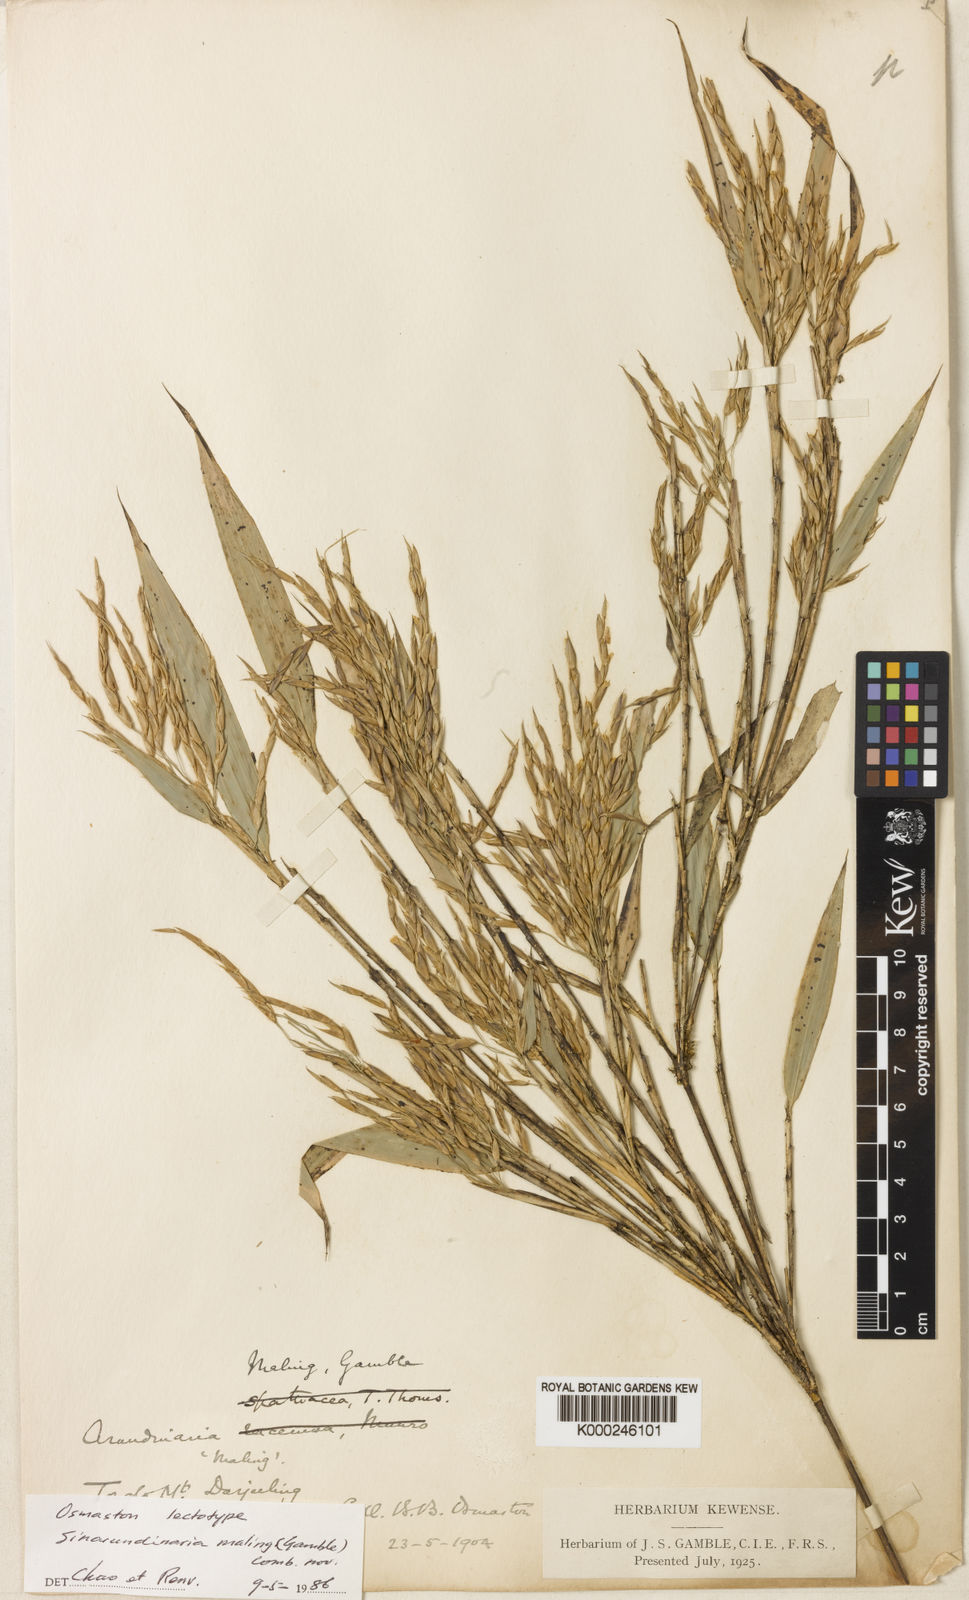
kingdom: Plantae
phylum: Tracheophyta
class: Liliopsida
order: Poales
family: Poaceae
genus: Yushania
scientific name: Yushania maling
